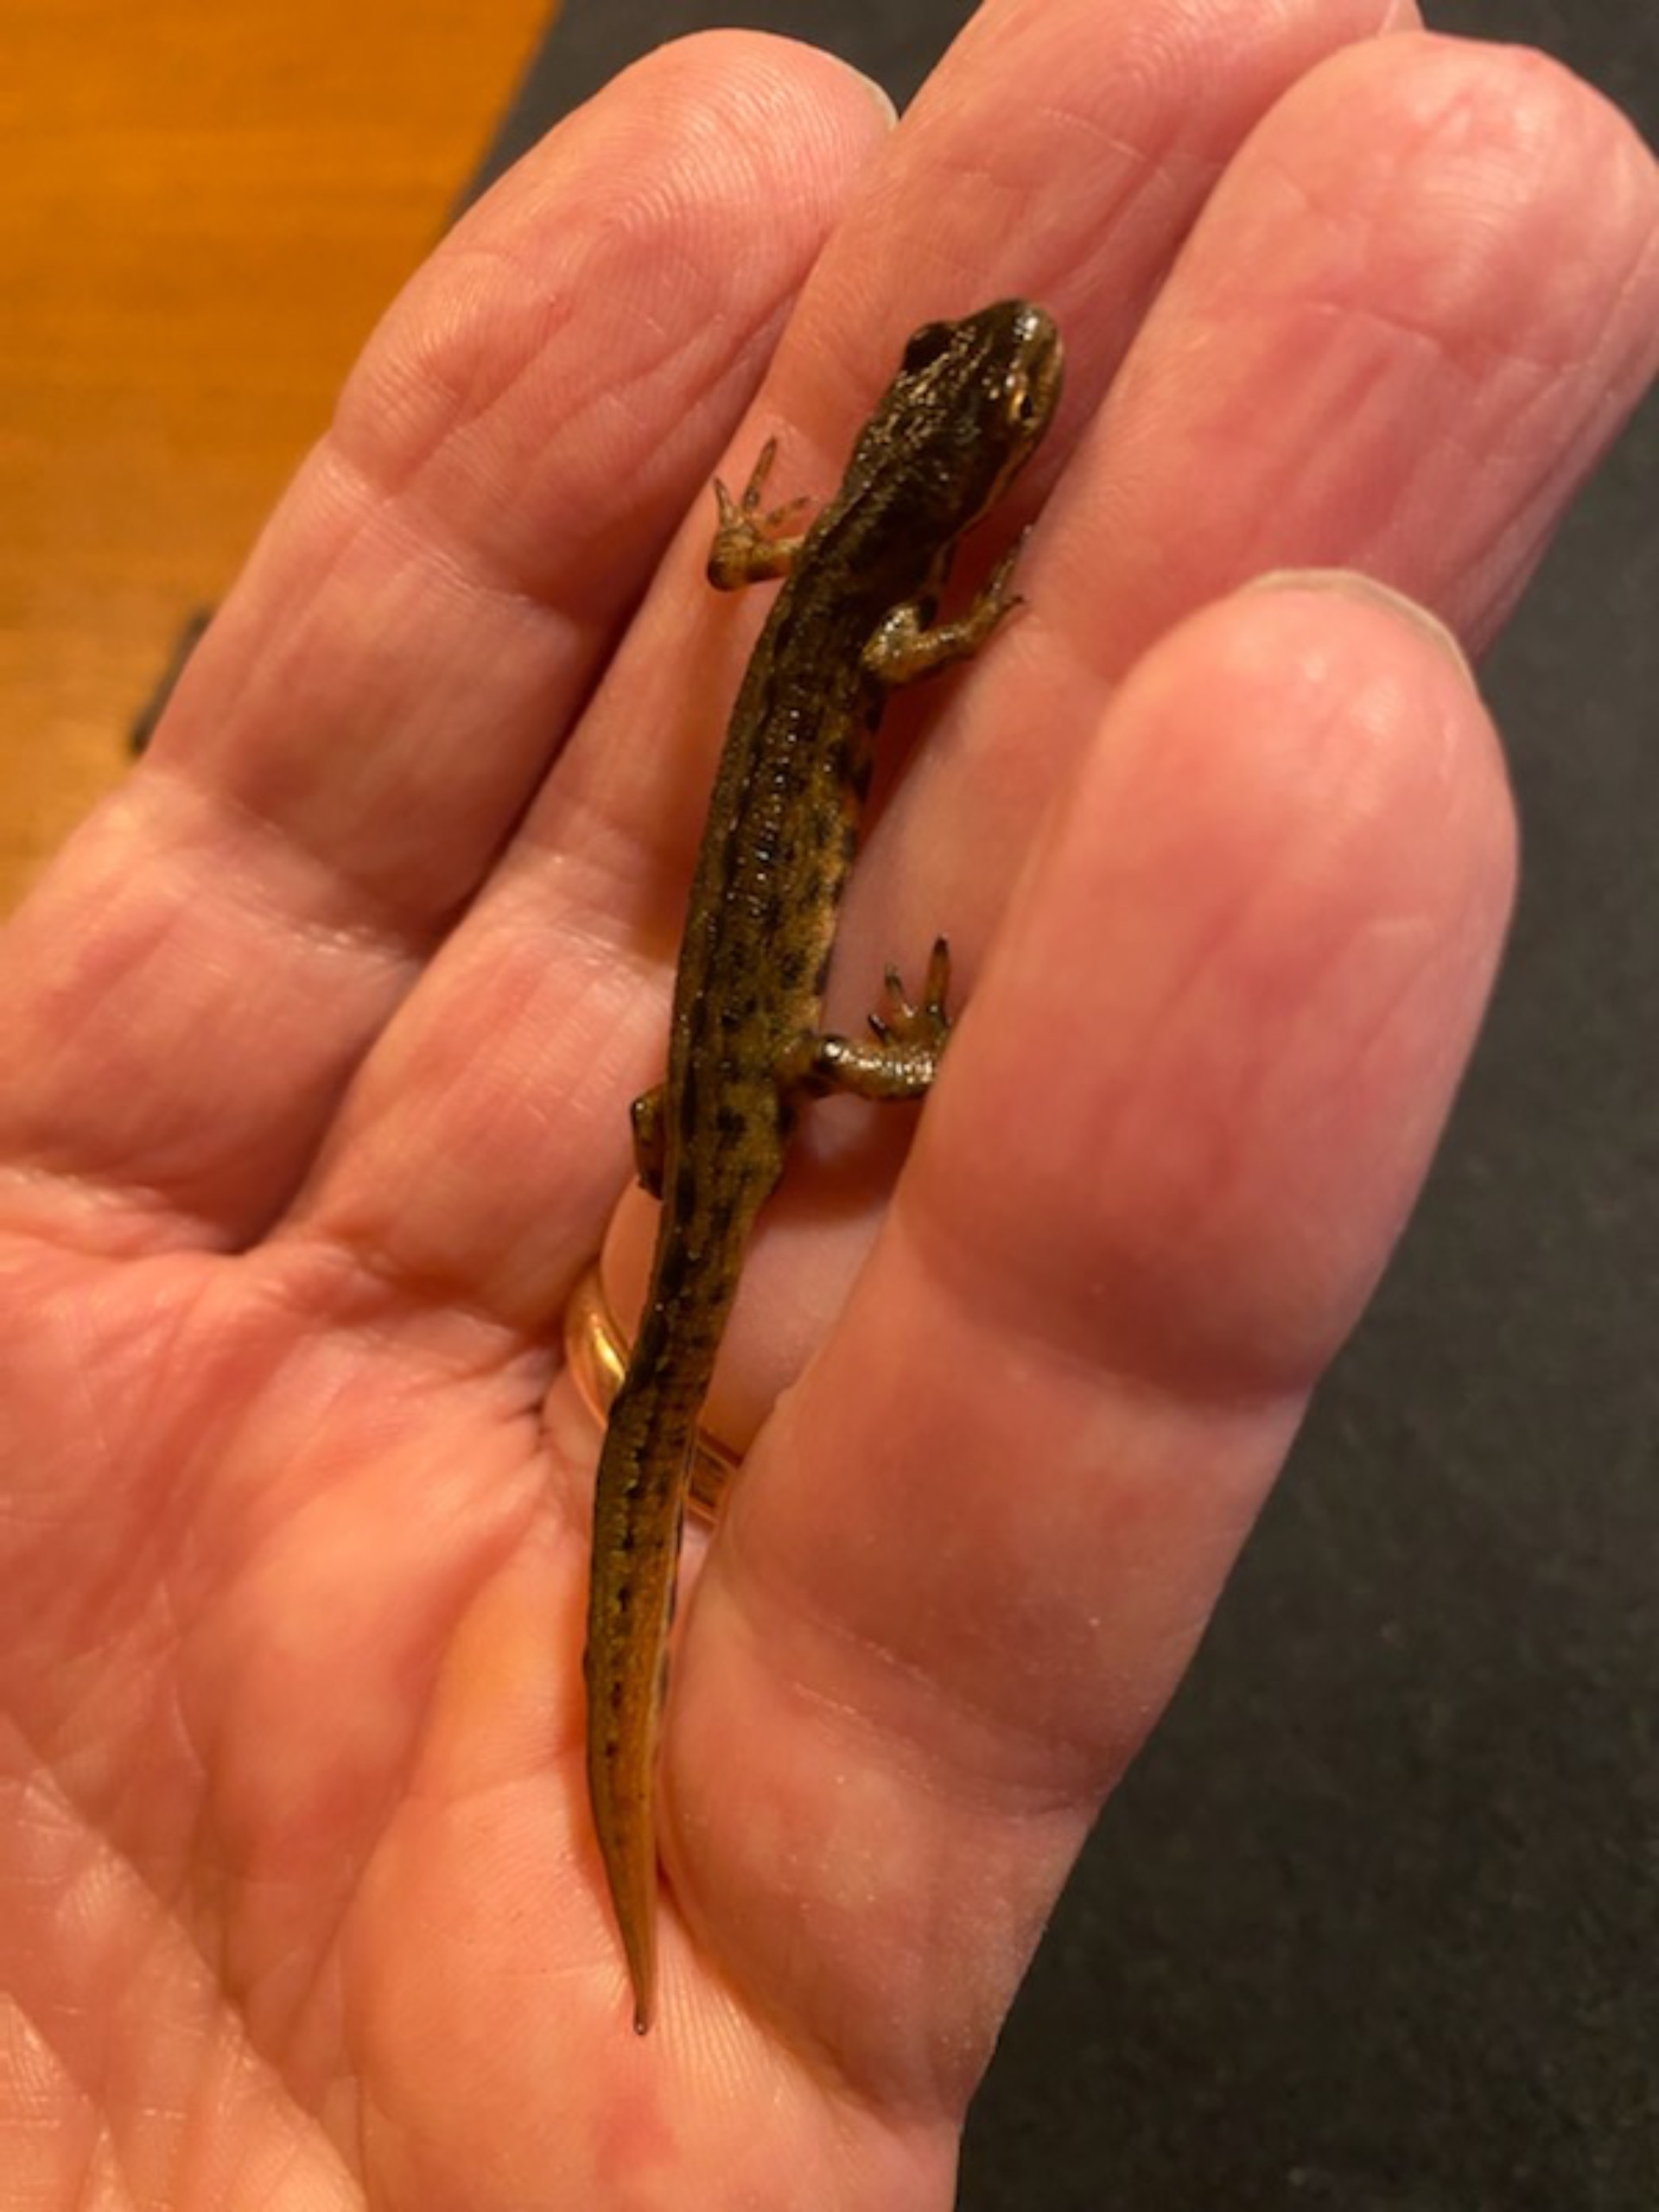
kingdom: Animalia
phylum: Chordata
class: Amphibia
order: Caudata
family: Salamandridae
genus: Lissotriton
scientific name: Lissotriton vulgaris
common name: Lille vandsalamander
